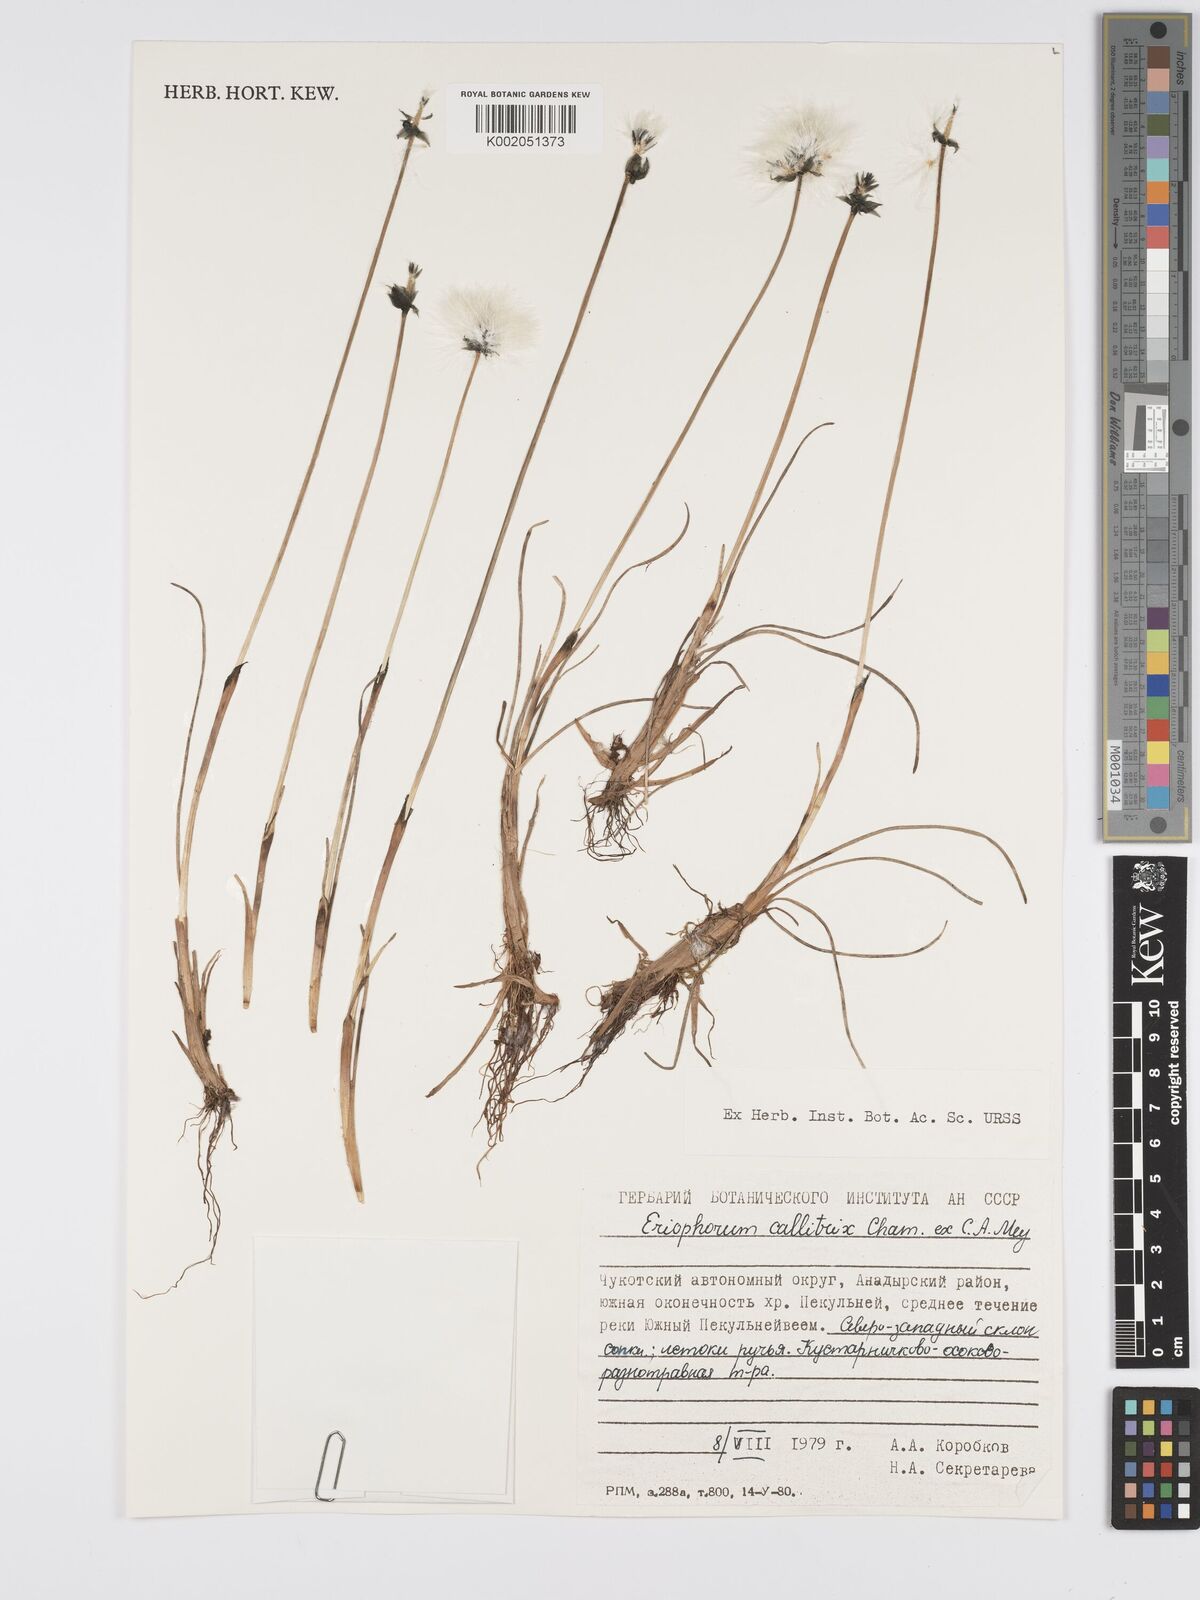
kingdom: Plantae
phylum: Tracheophyta
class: Liliopsida
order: Poales
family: Cyperaceae
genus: Eriophorum
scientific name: Eriophorum callitrix
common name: Arctic cottongrass
